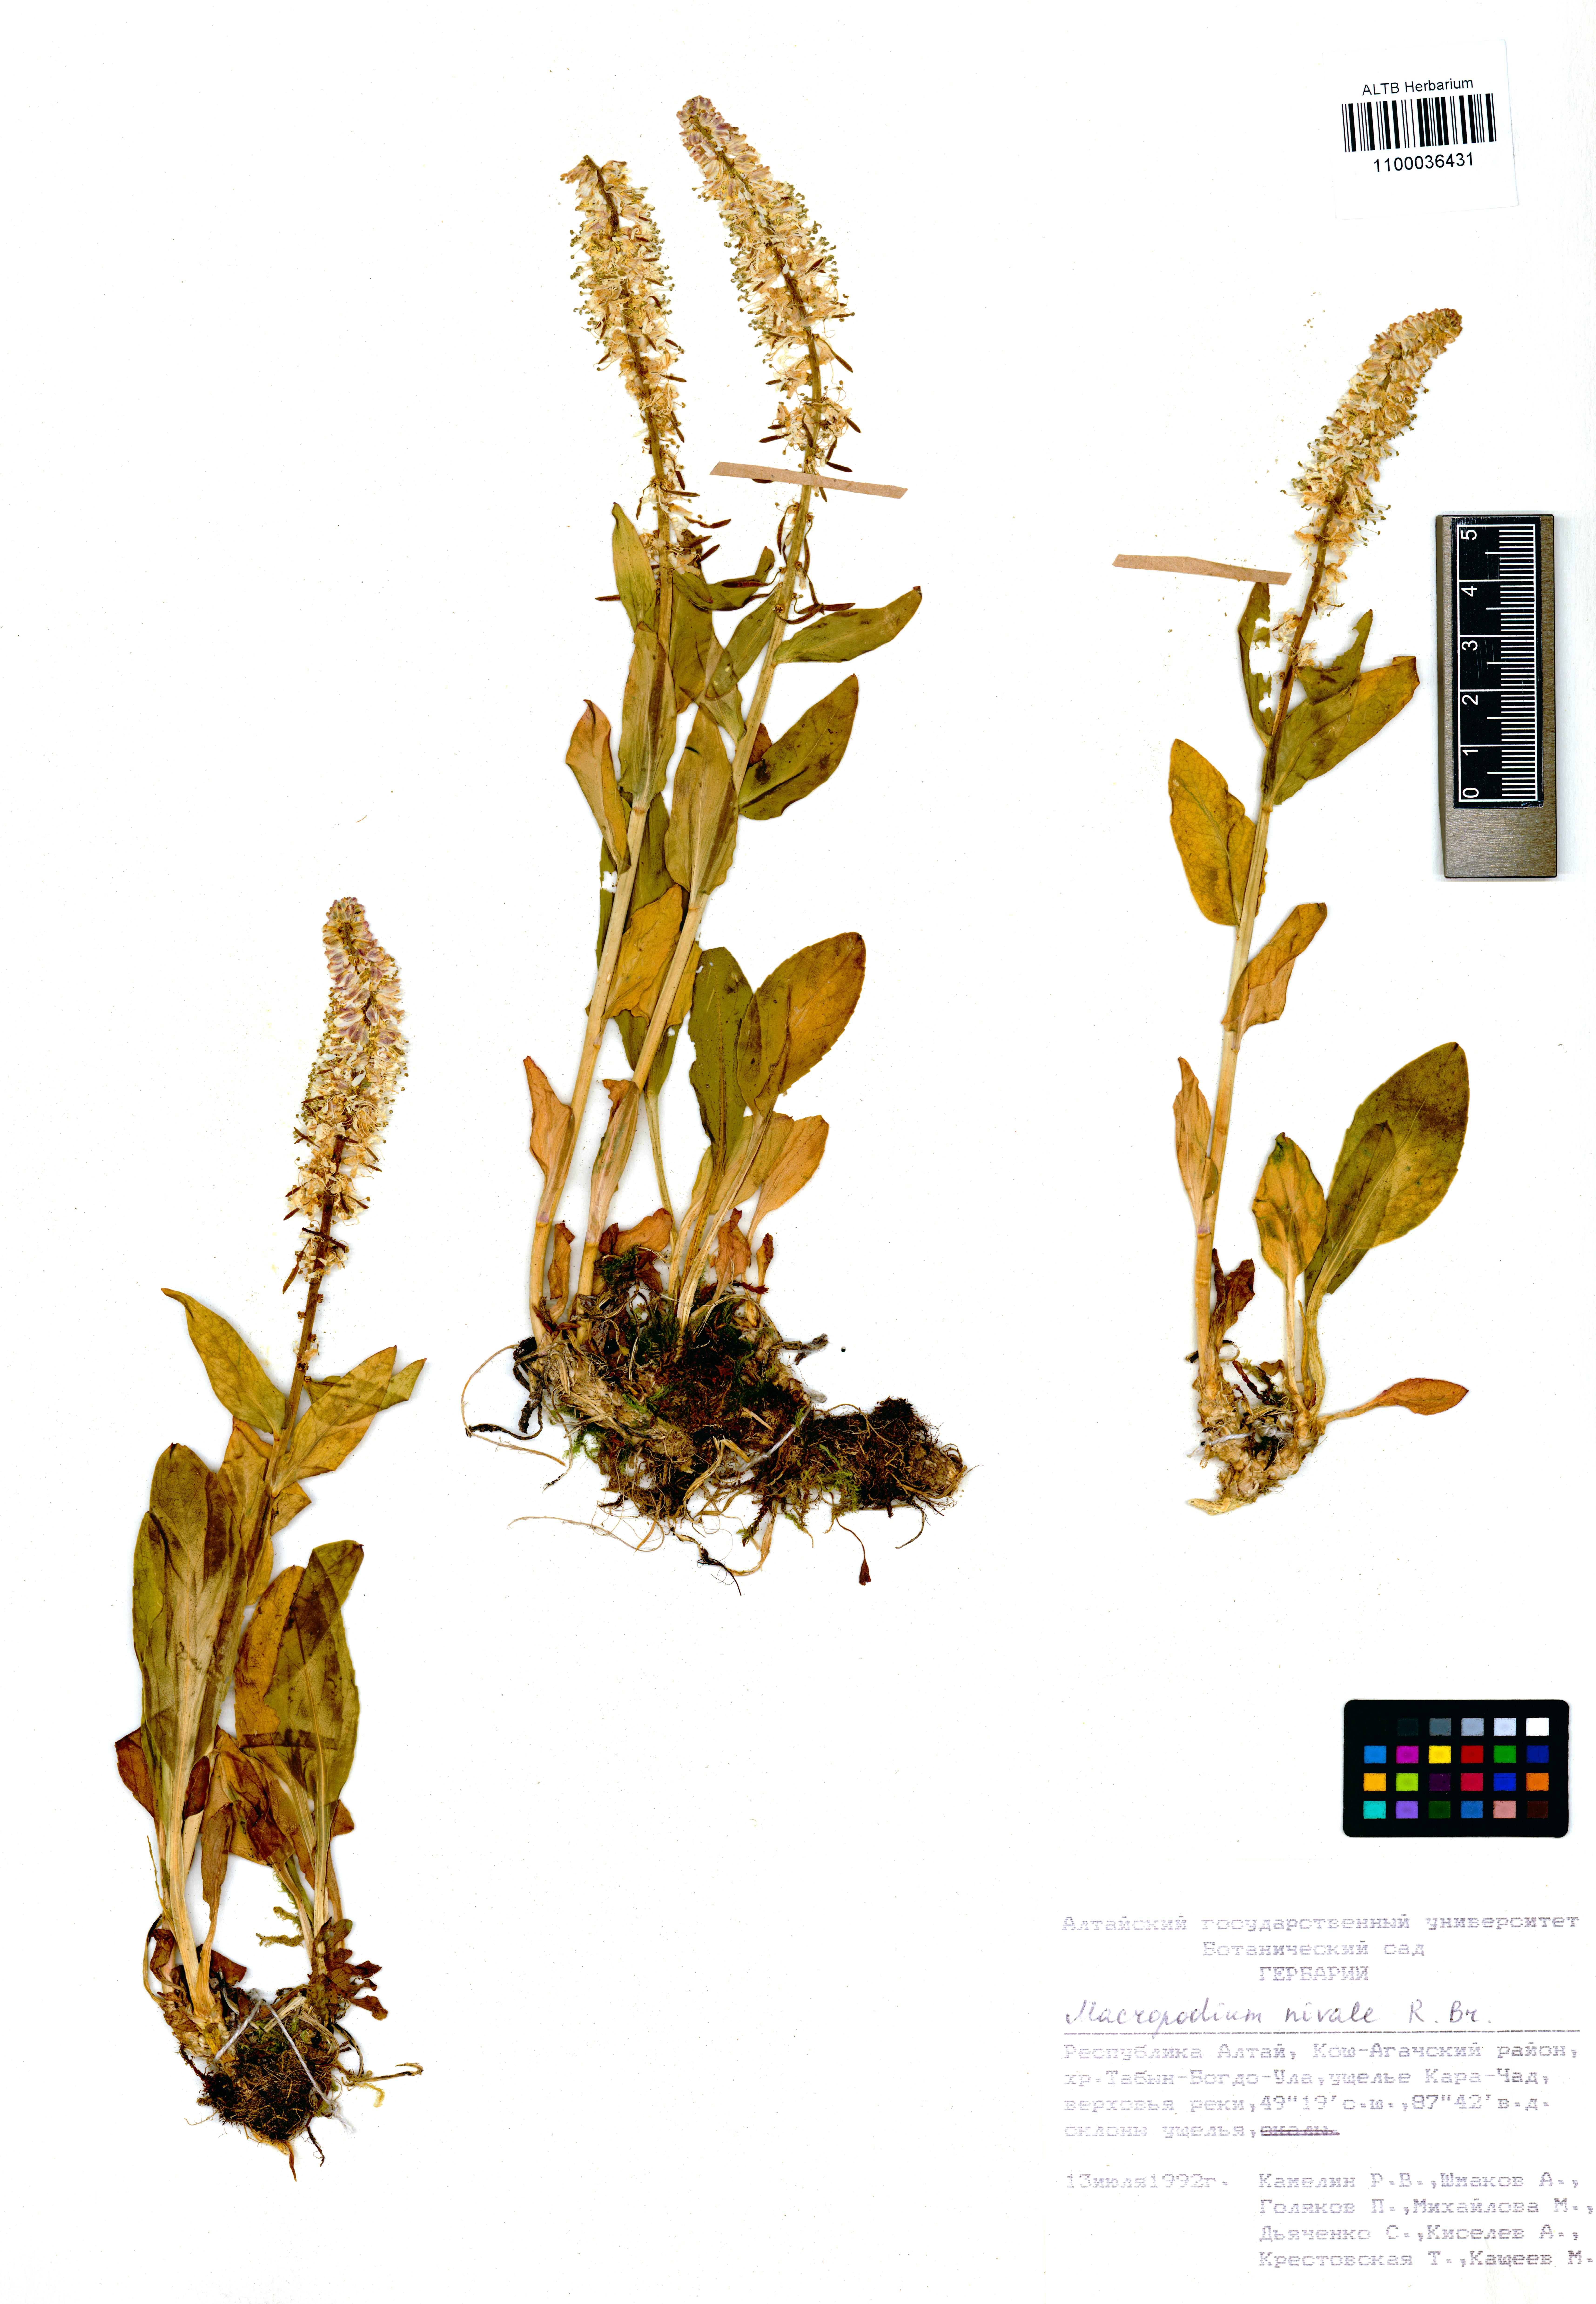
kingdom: Plantae
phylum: Tracheophyta
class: Magnoliopsida
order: Brassicales
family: Brassicaceae
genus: Macropodium
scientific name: Macropodium nivale
